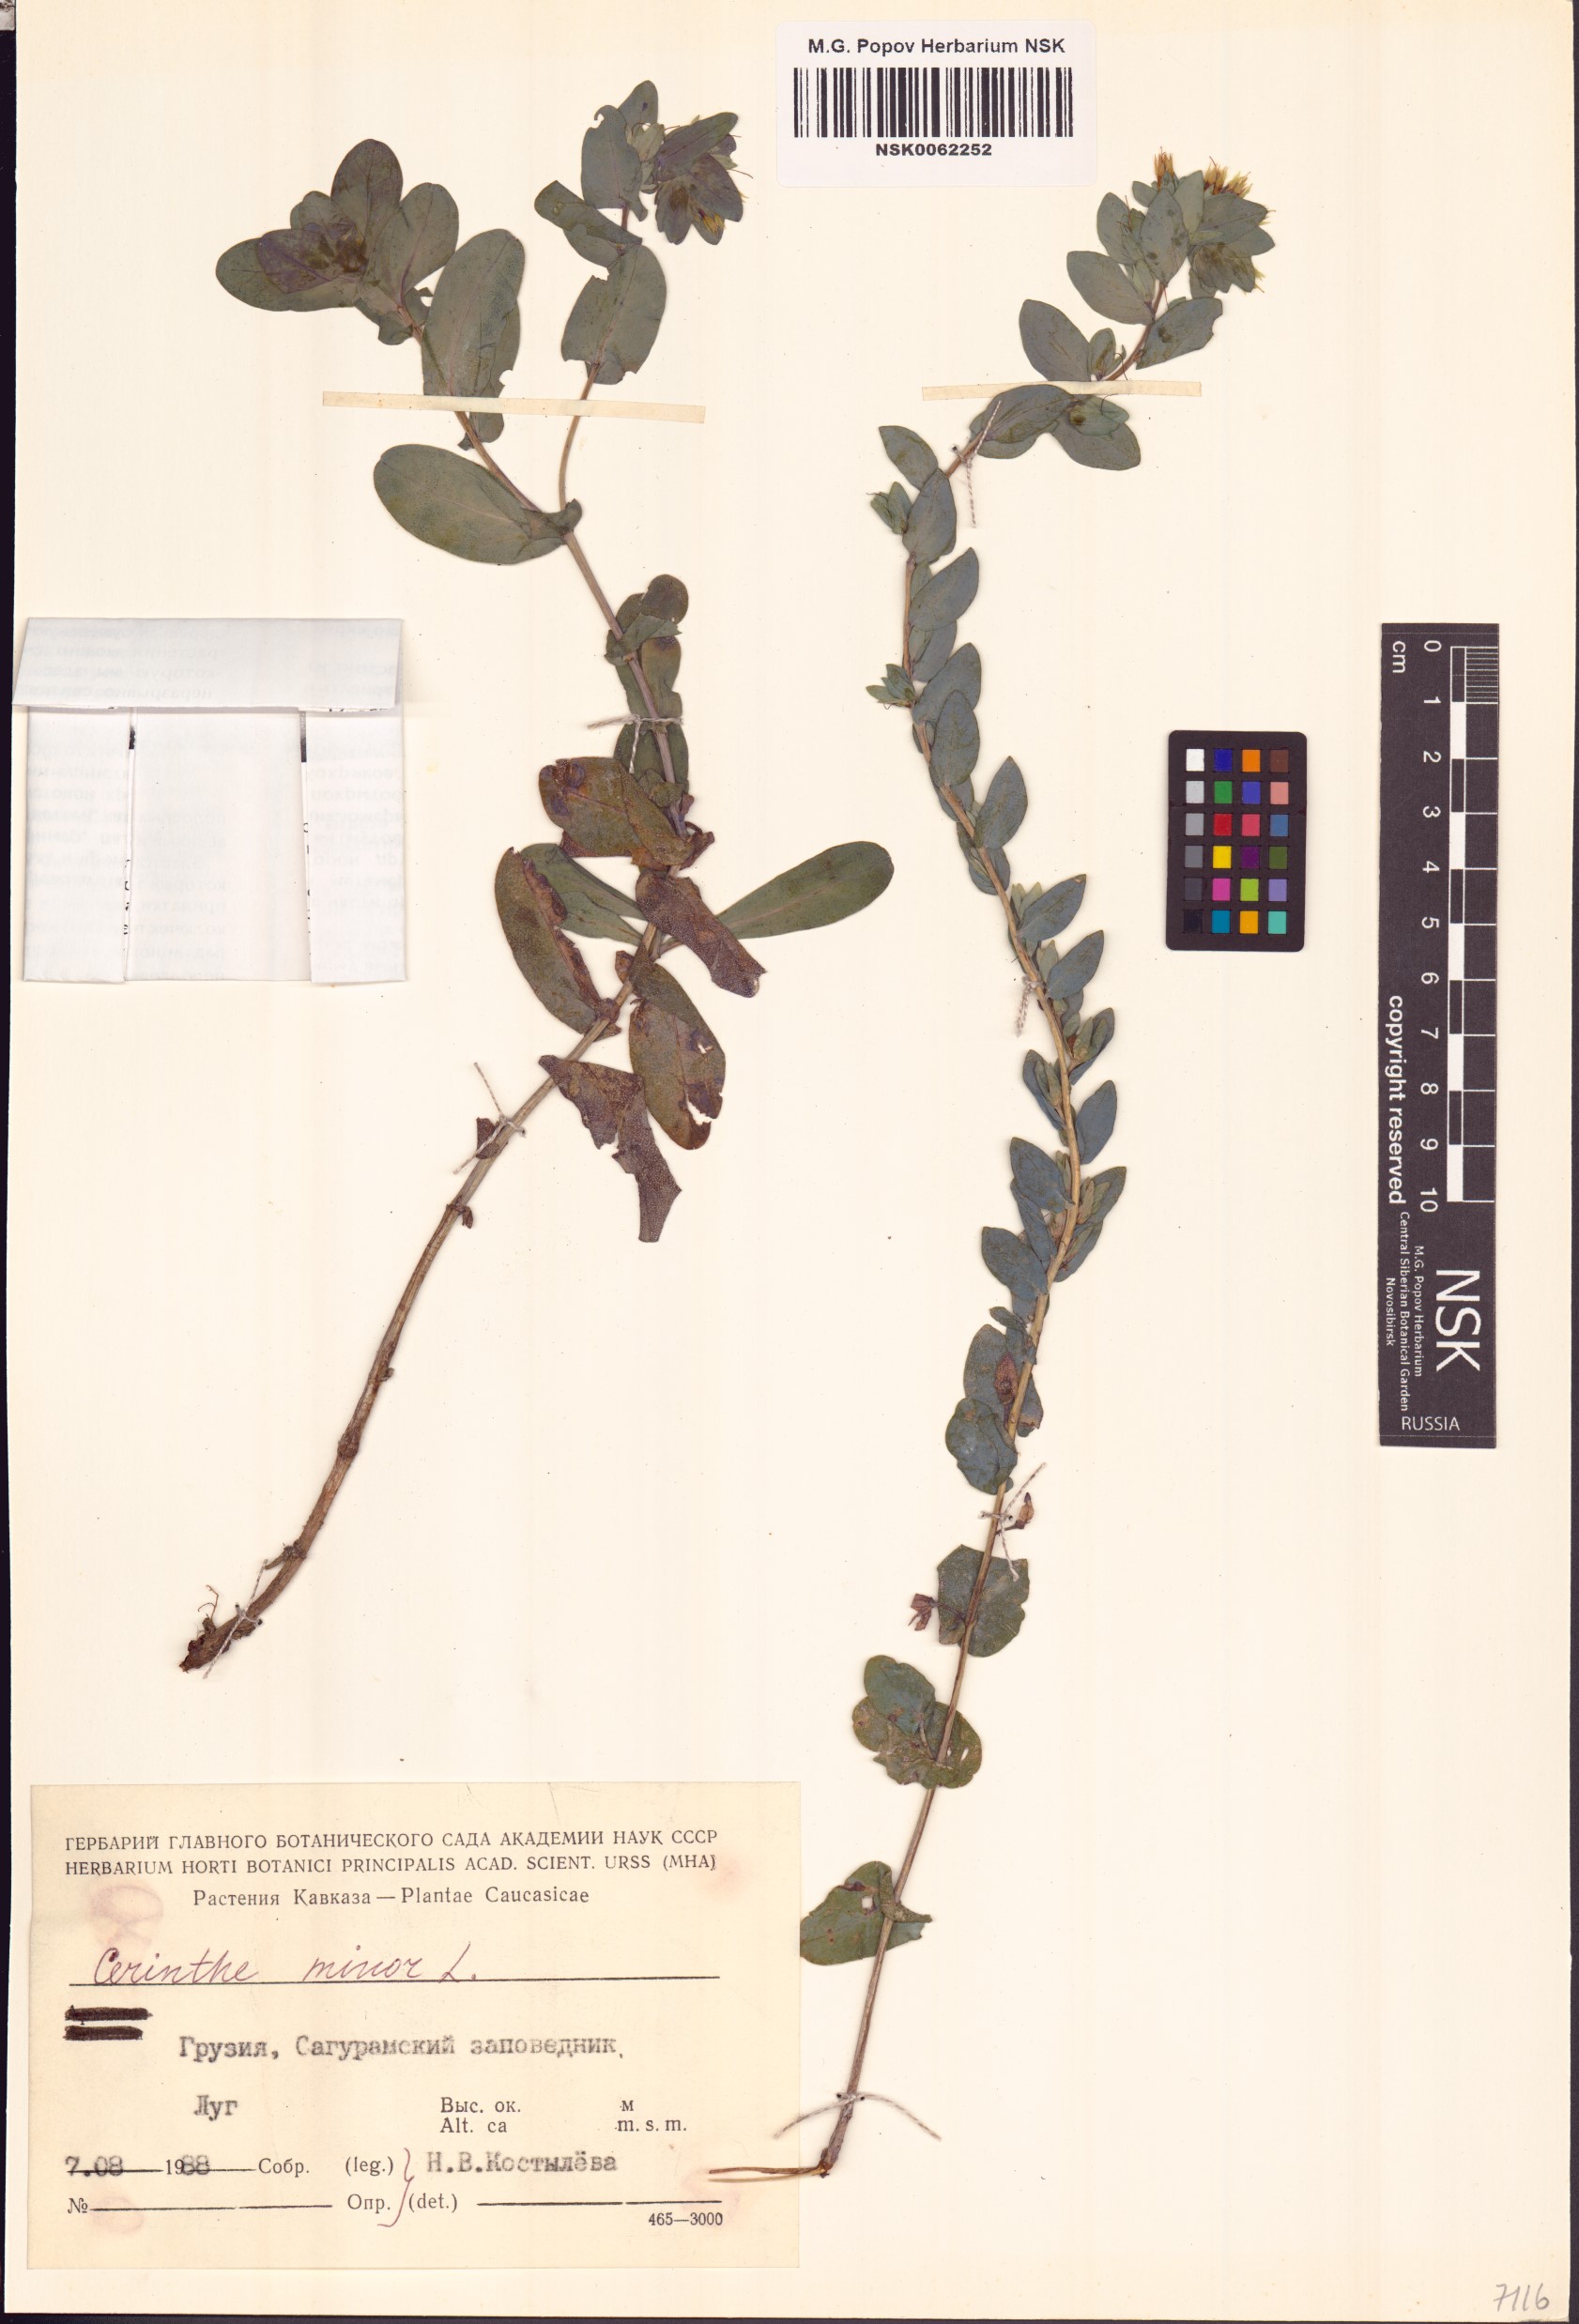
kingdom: Plantae
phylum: Tracheophyta
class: Magnoliopsida
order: Boraginales
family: Boraginaceae
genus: Cerinthe
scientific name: Cerinthe minor
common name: Lesser honeywort
